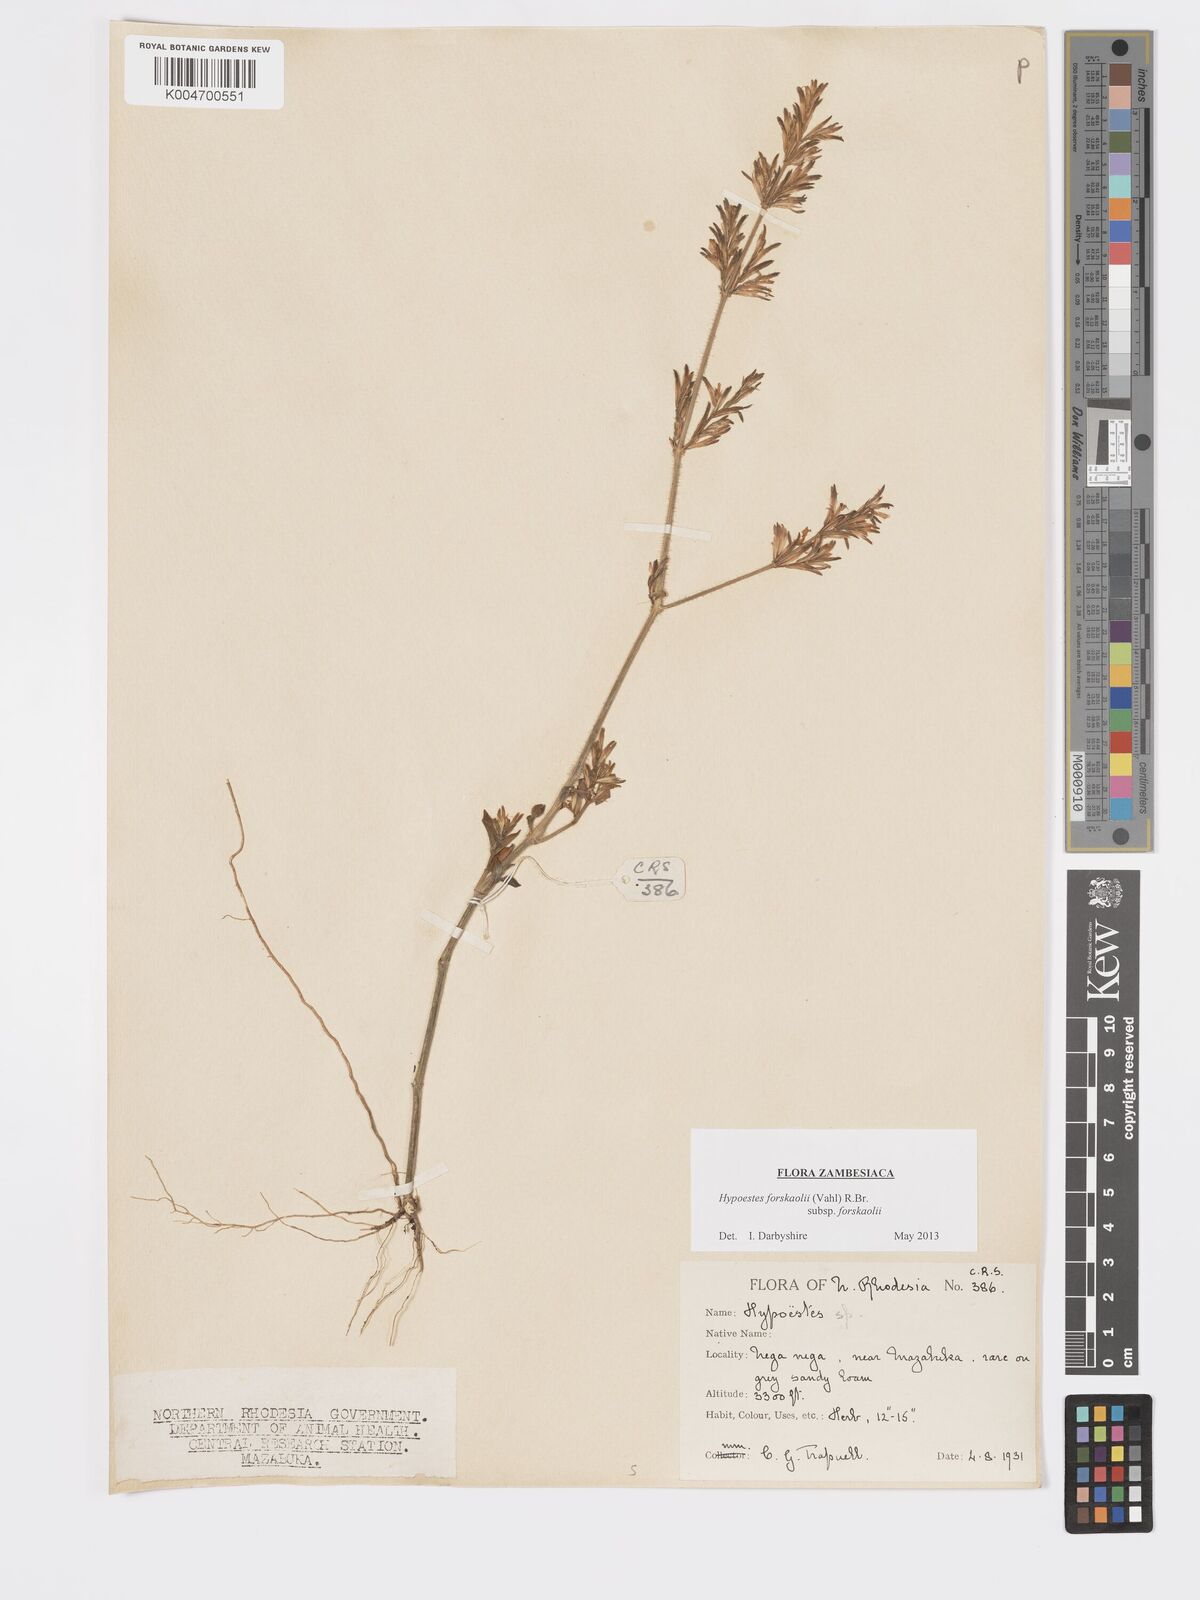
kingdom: Plantae
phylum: Tracheophyta
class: Magnoliopsida
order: Lamiales
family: Acanthaceae
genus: Hypoestes
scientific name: Hypoestes forskaolii
